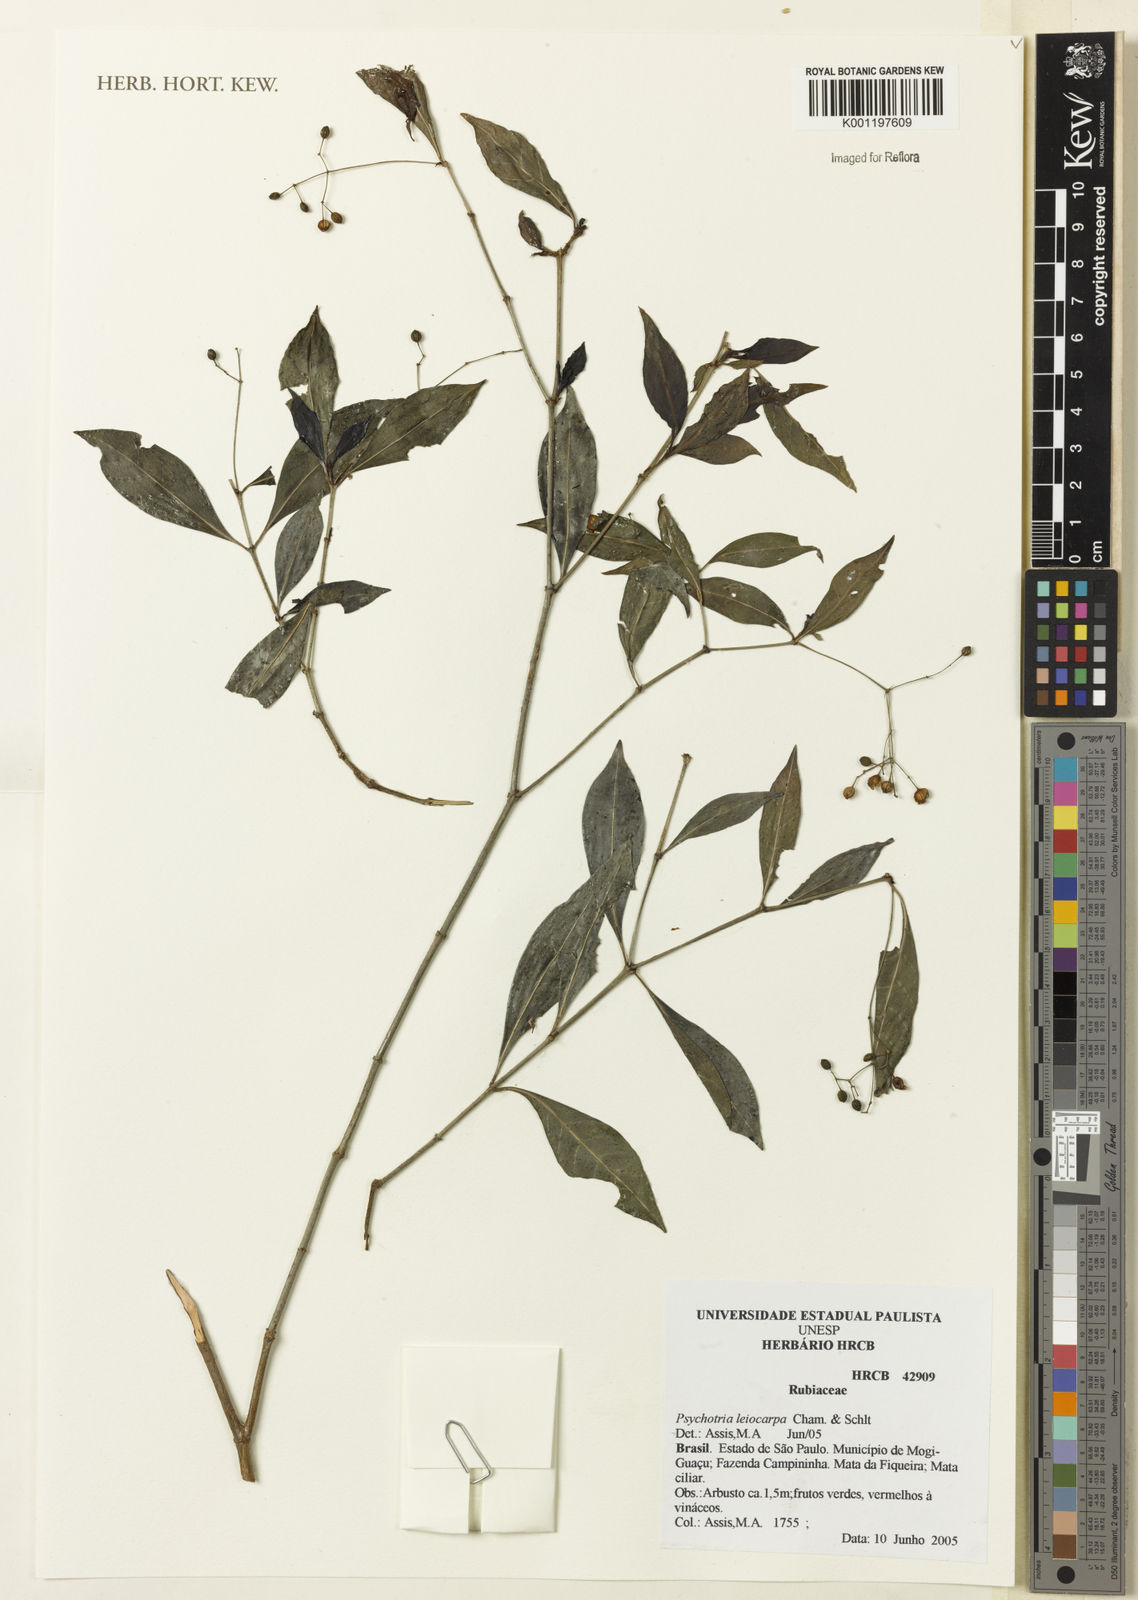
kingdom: Plantae
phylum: Tracheophyta
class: Magnoliopsida
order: Gentianales
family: Rubiaceae
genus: Psychotria
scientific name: Psychotria leiocarpa
